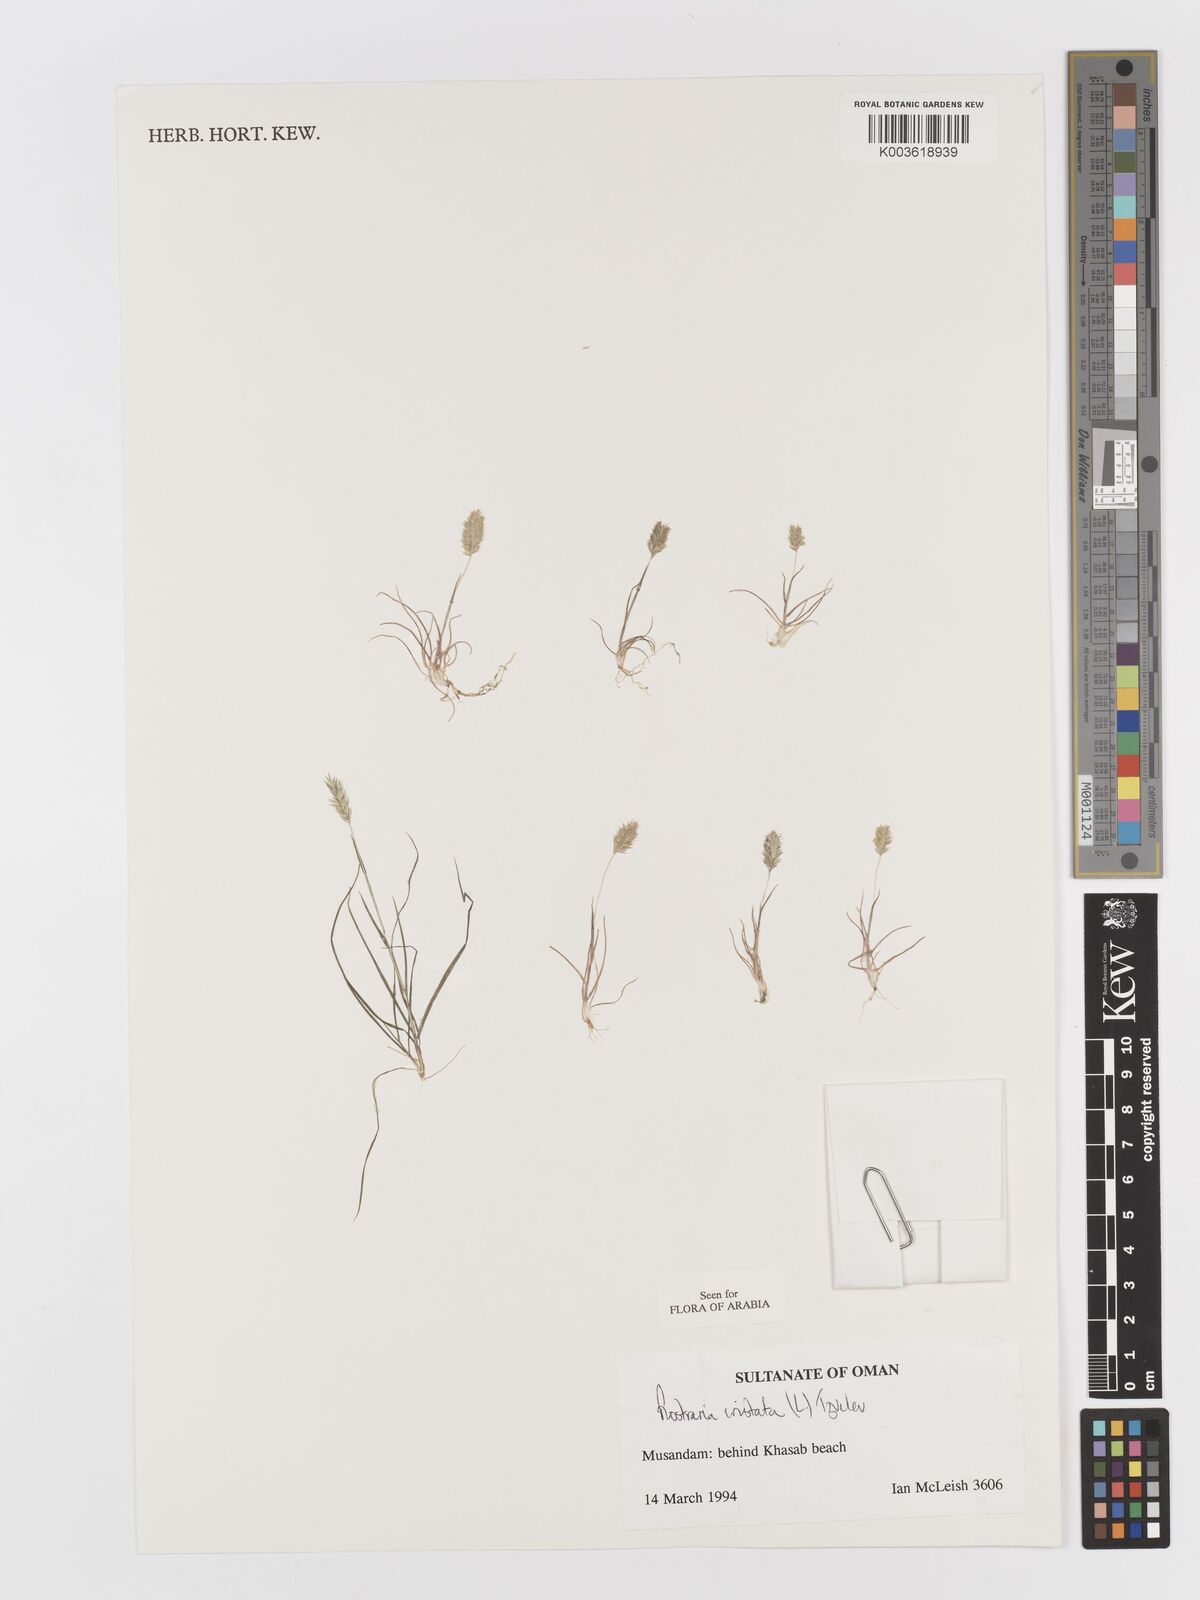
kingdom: Plantae
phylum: Tracheophyta
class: Liliopsida
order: Poales
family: Poaceae
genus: Rostraria
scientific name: Rostraria cristata
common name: Mediterranean hair-grass
